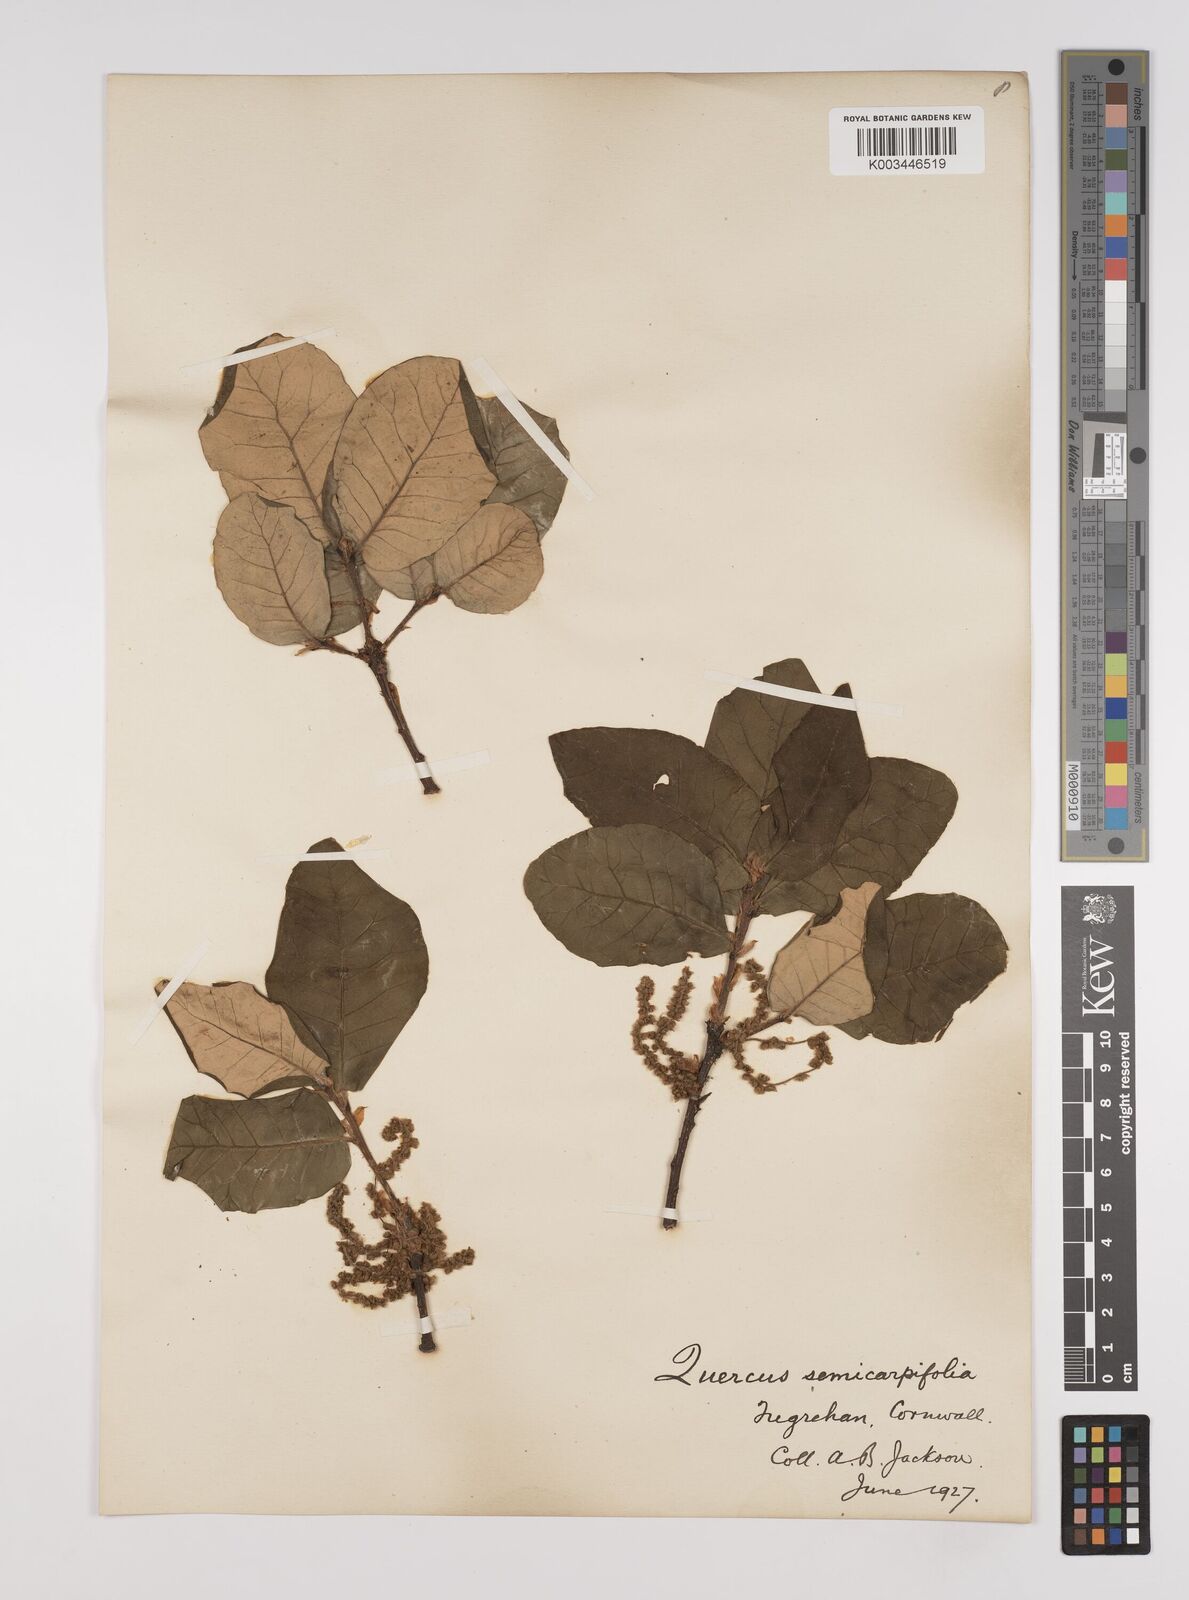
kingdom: Plantae
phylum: Tracheophyta
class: Magnoliopsida
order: Fagales
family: Fagaceae
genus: Quercus
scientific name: Quercus semecarpifolia
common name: Brown oak
